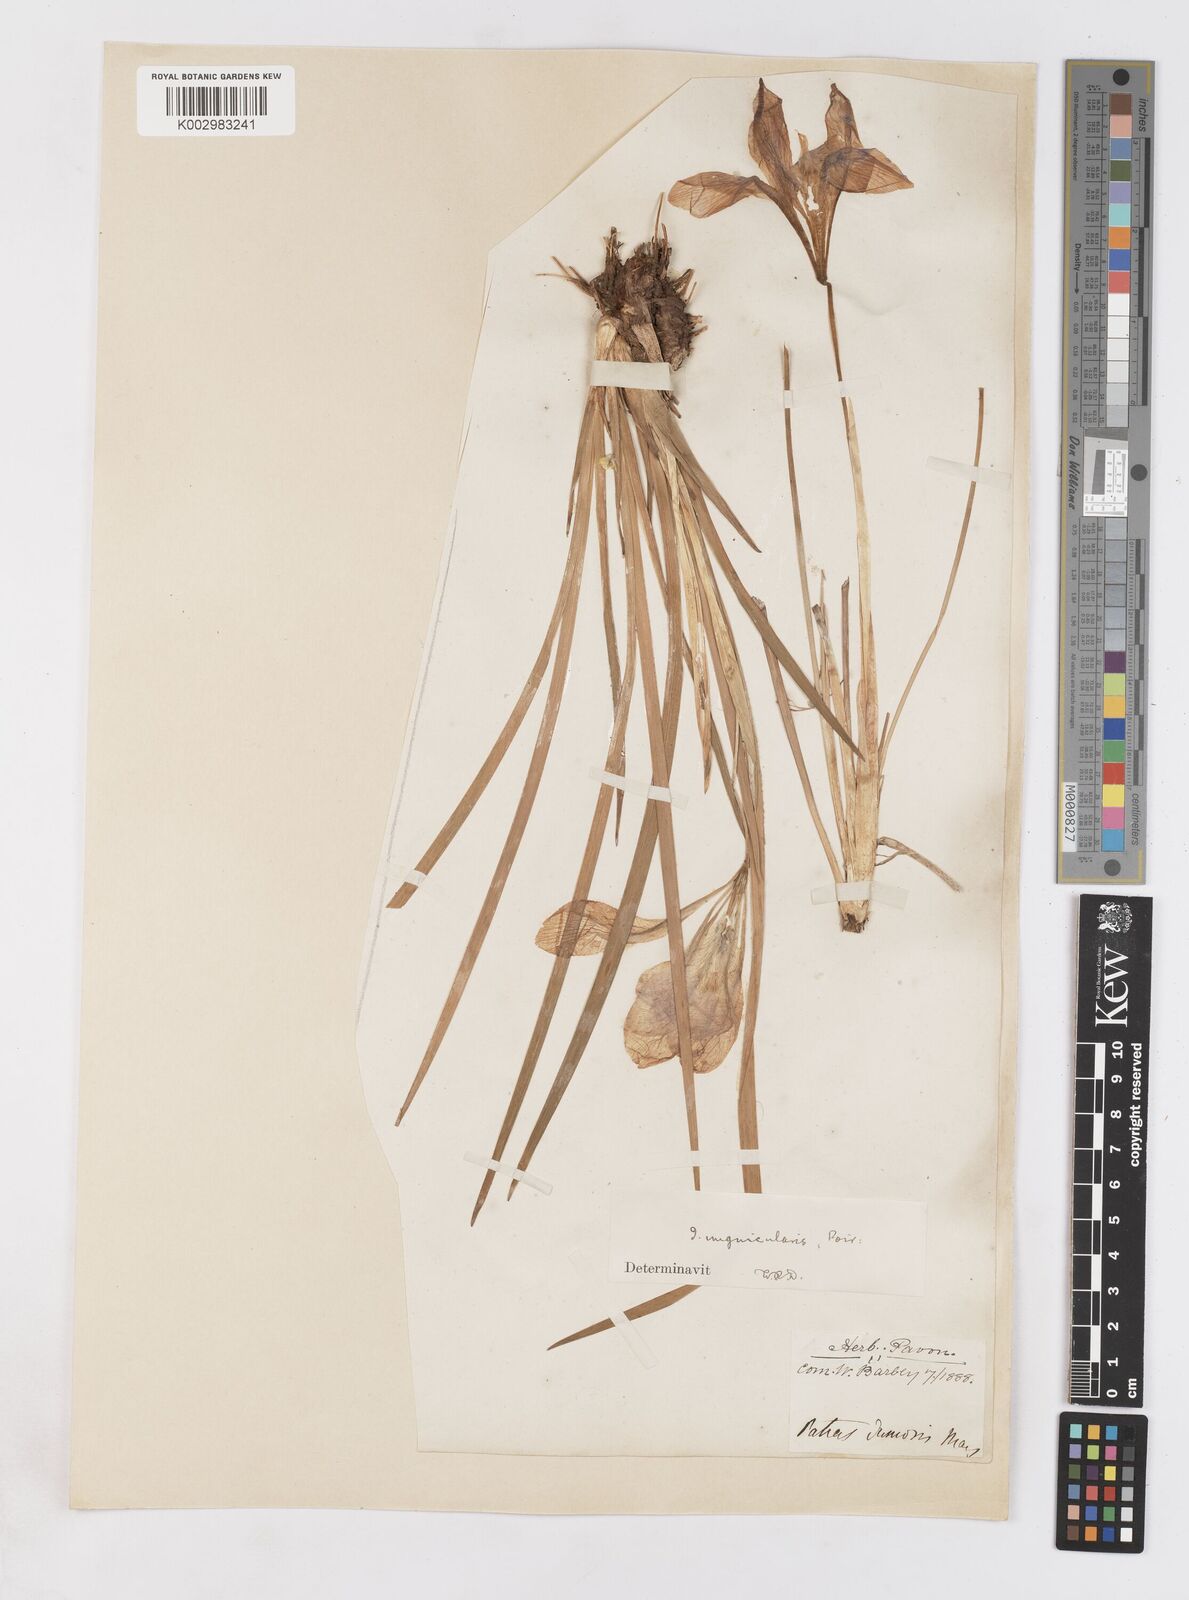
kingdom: Plantae
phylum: Tracheophyta
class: Liliopsida
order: Asparagales
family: Iridaceae
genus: Iris
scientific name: Iris unguicularis
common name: Algerian iris
